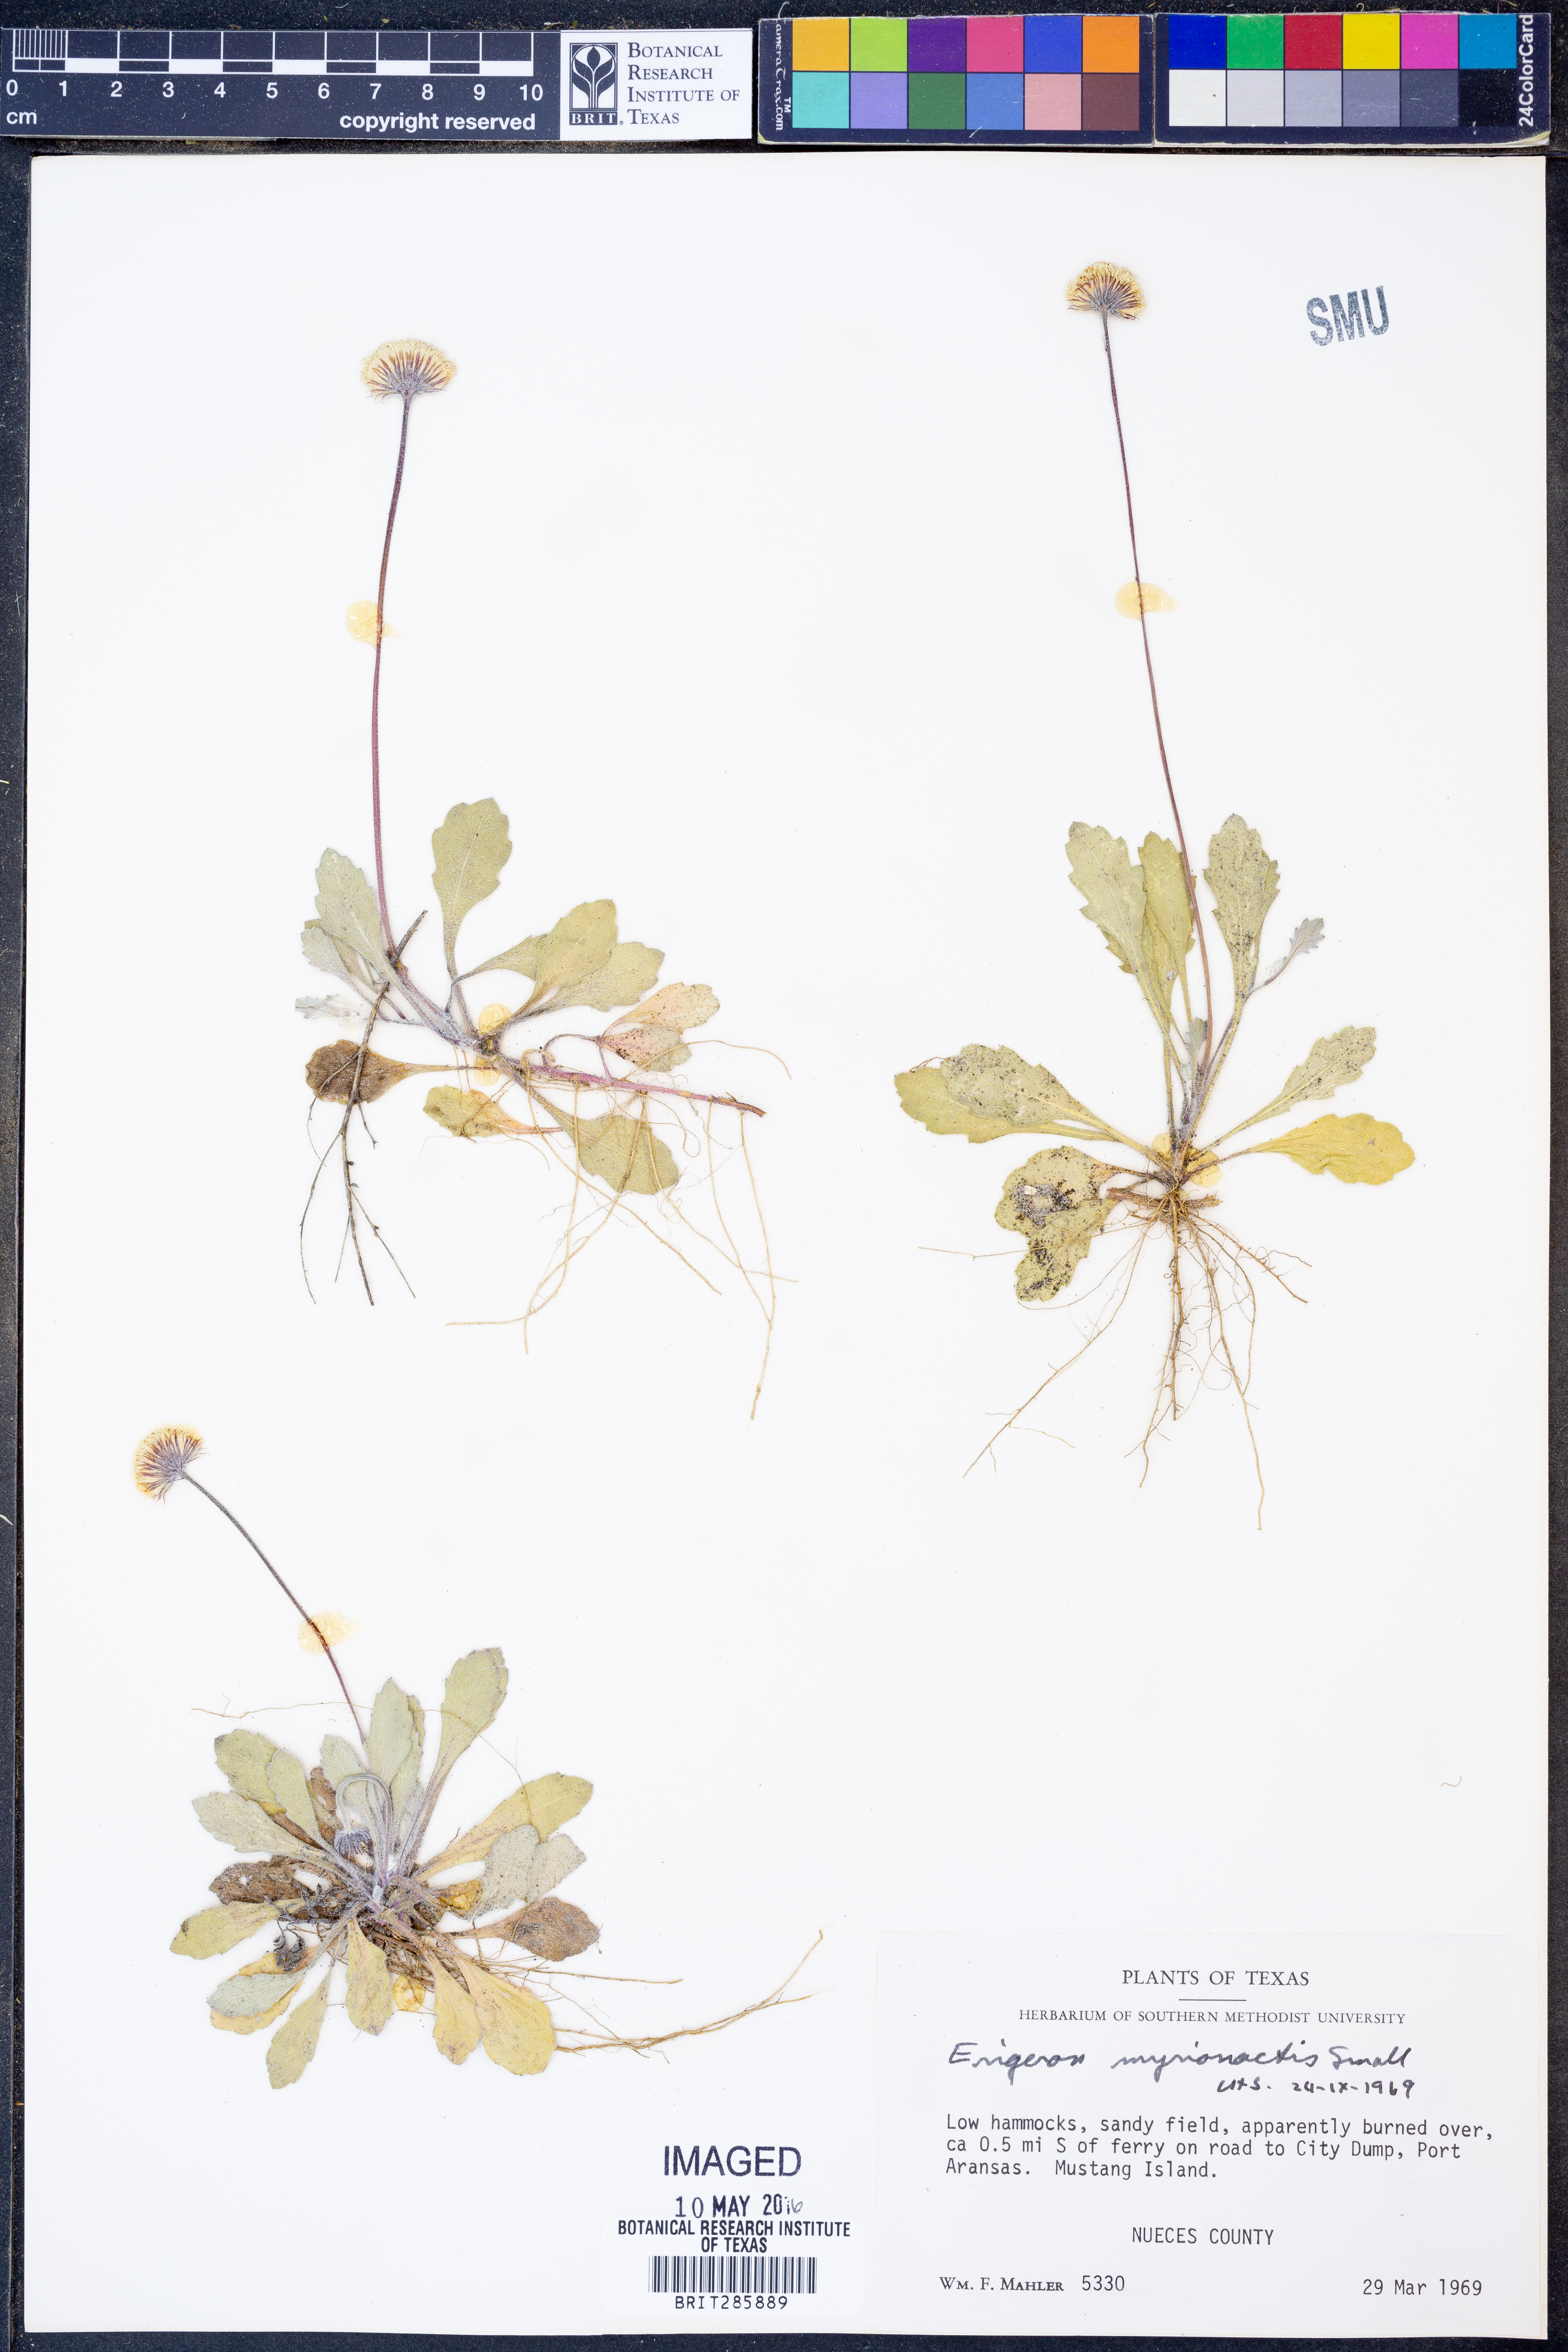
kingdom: Plantae
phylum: Tracheophyta
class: Magnoliopsida
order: Asterales
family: Asteraceae
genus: Erigeron
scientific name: Erigeron procumbens
